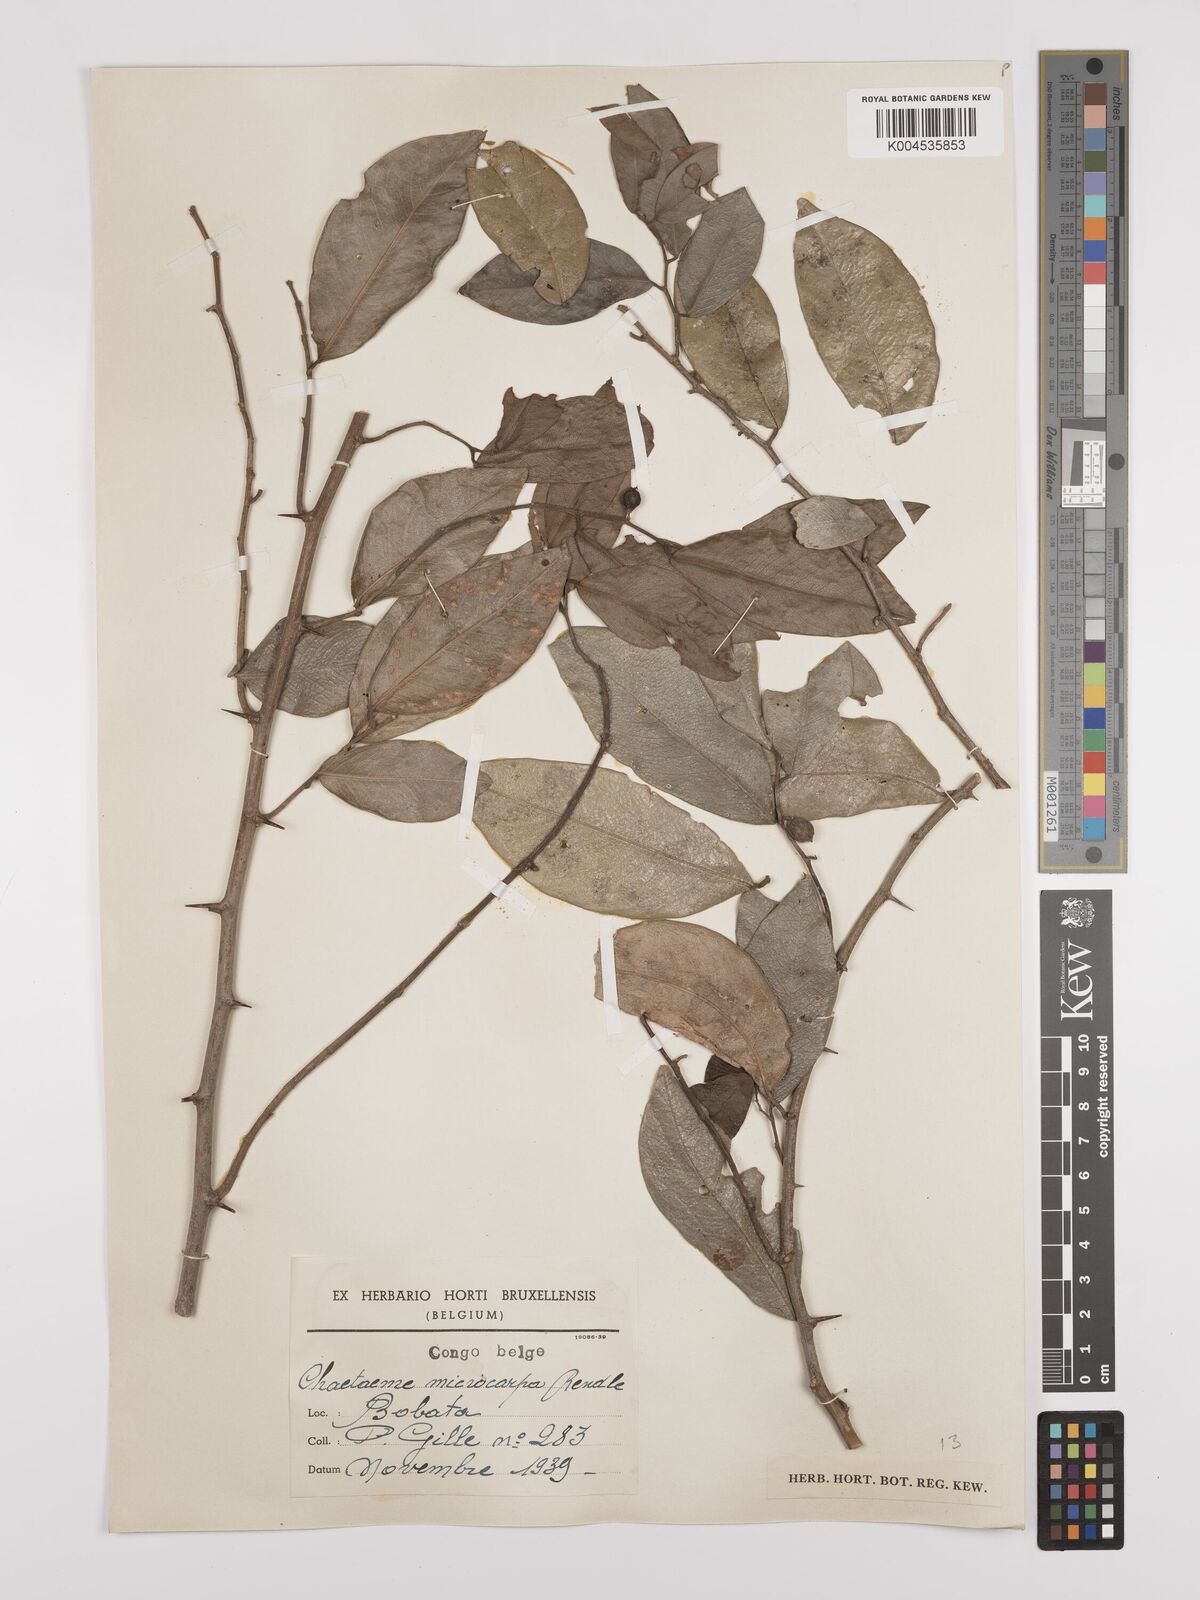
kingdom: Plantae
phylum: Tracheophyta
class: Magnoliopsida
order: Rosales
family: Cannabaceae
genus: Chaetachme
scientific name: Chaetachme aristata
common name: Thorny elm
